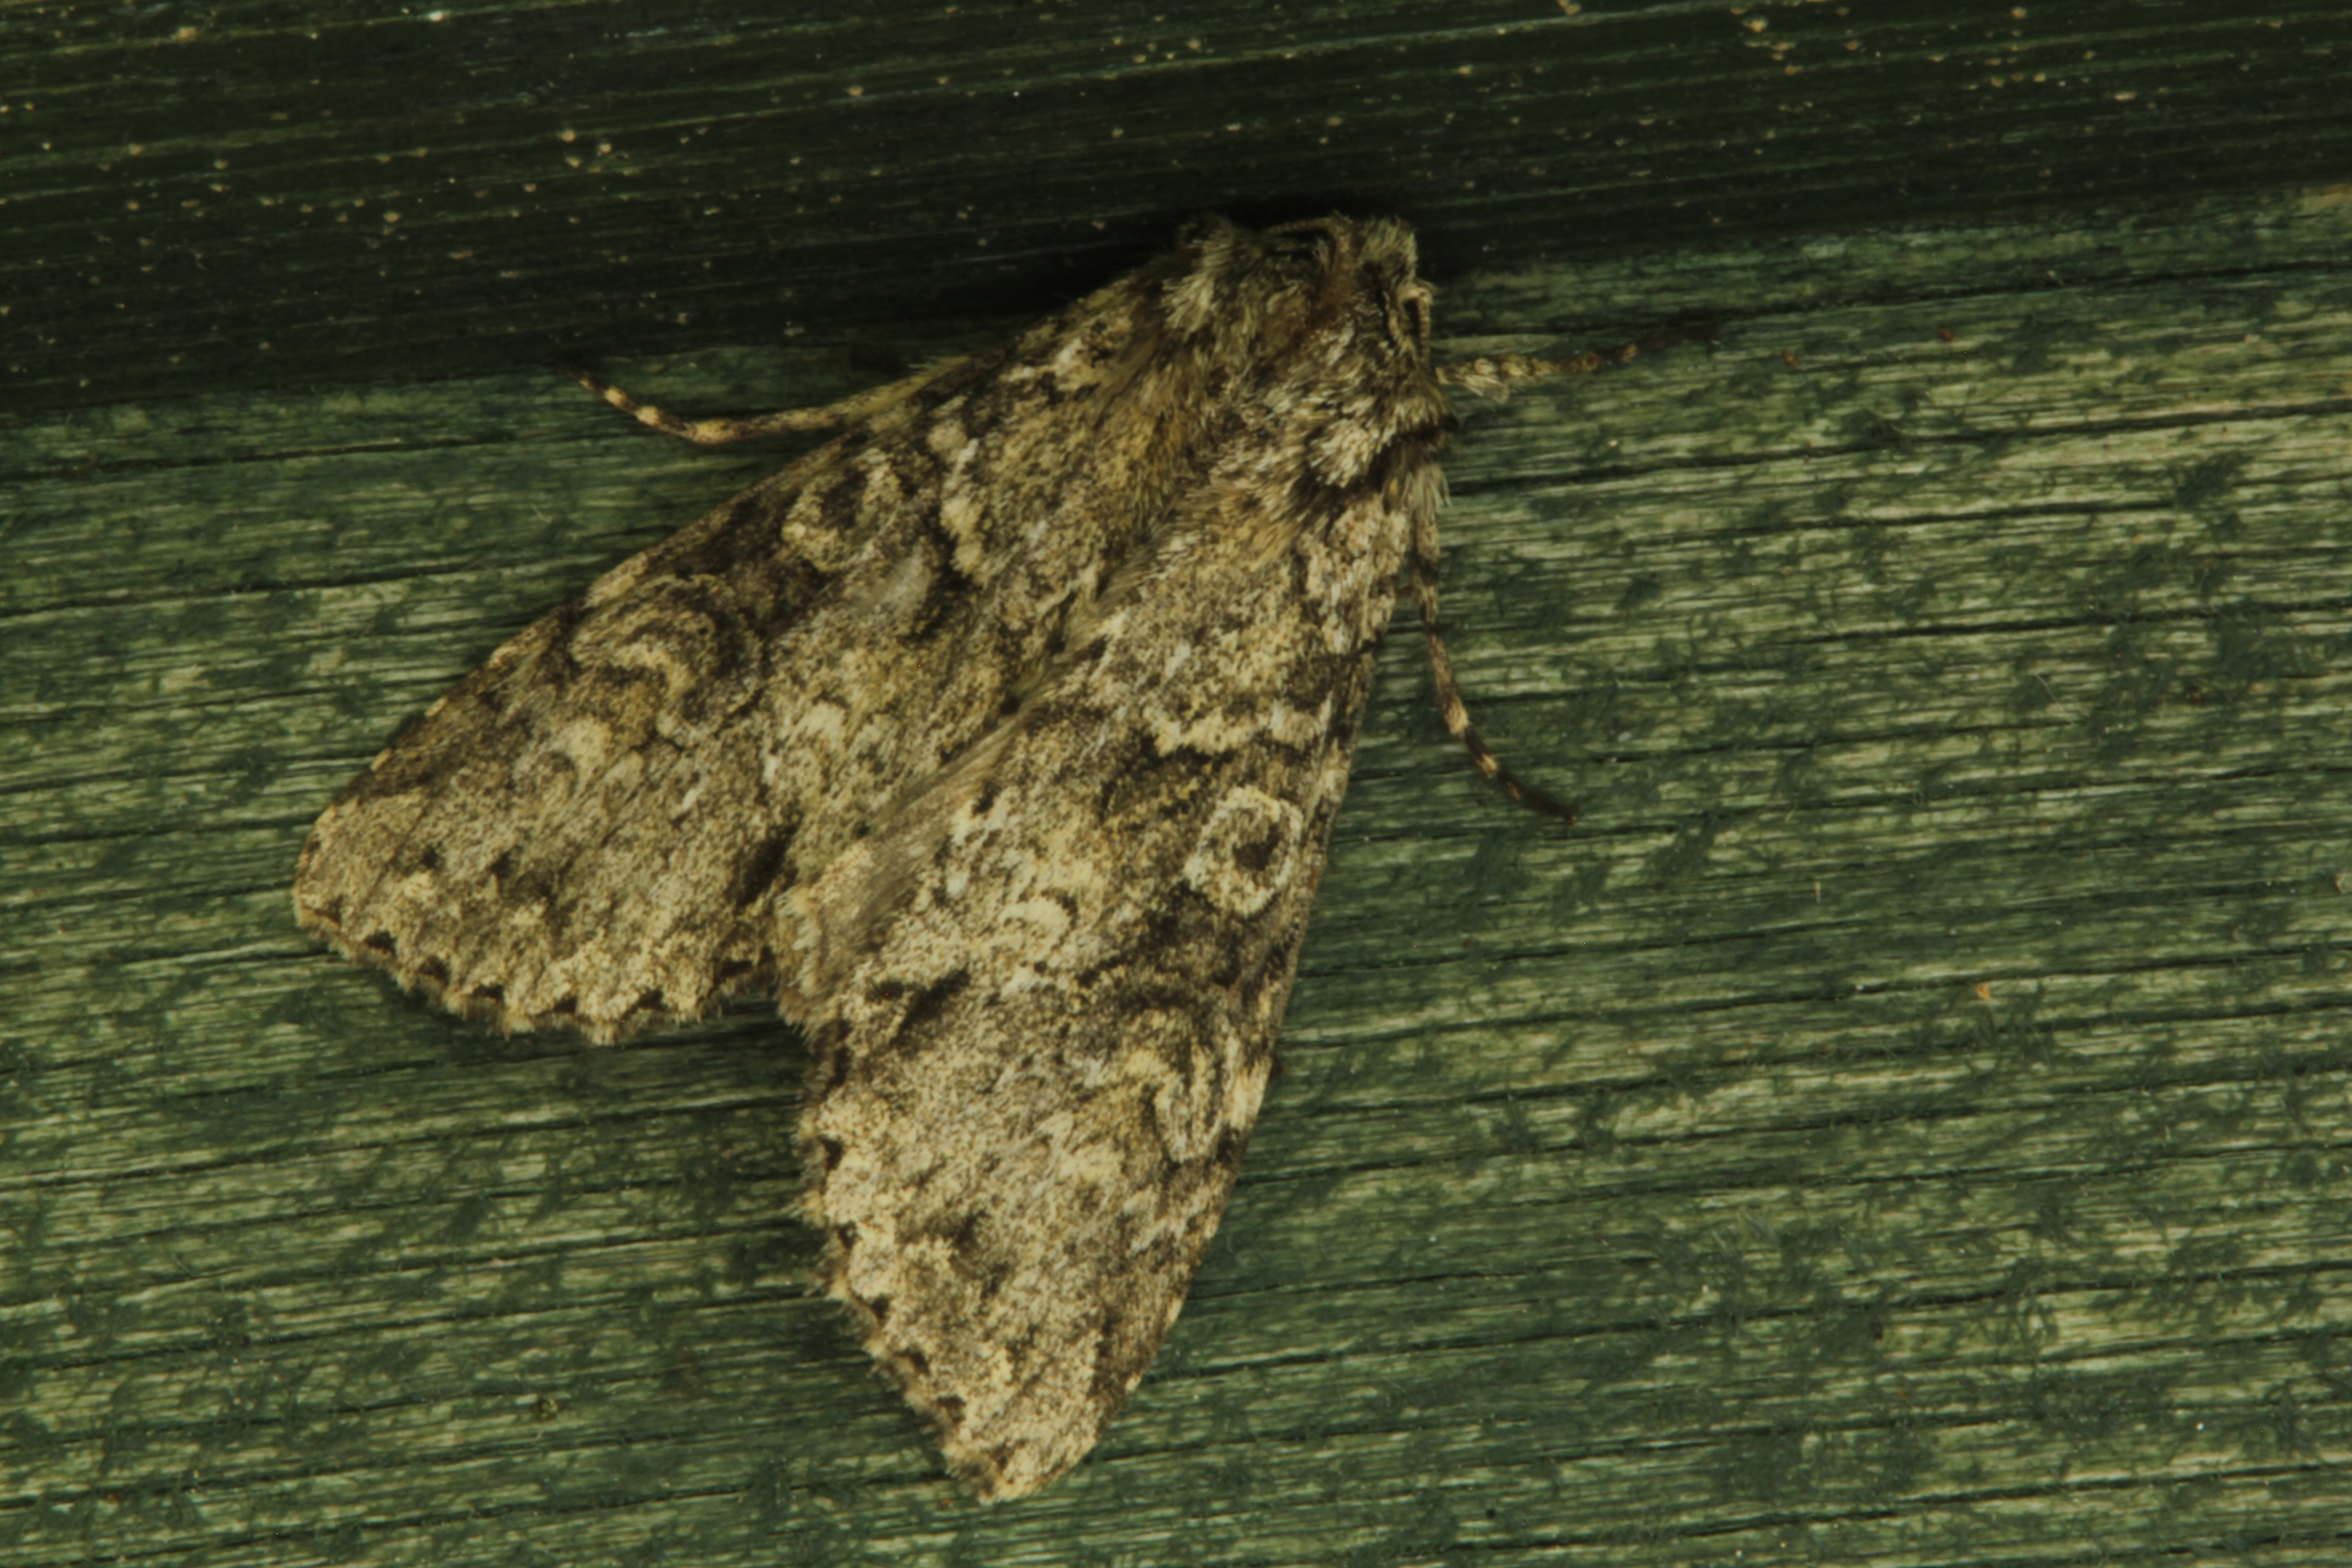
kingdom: Animalia
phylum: Arthropoda
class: Insecta
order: Lepidoptera
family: Noctuidae
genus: Polia
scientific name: Polia nebulosa
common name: Grey arches
